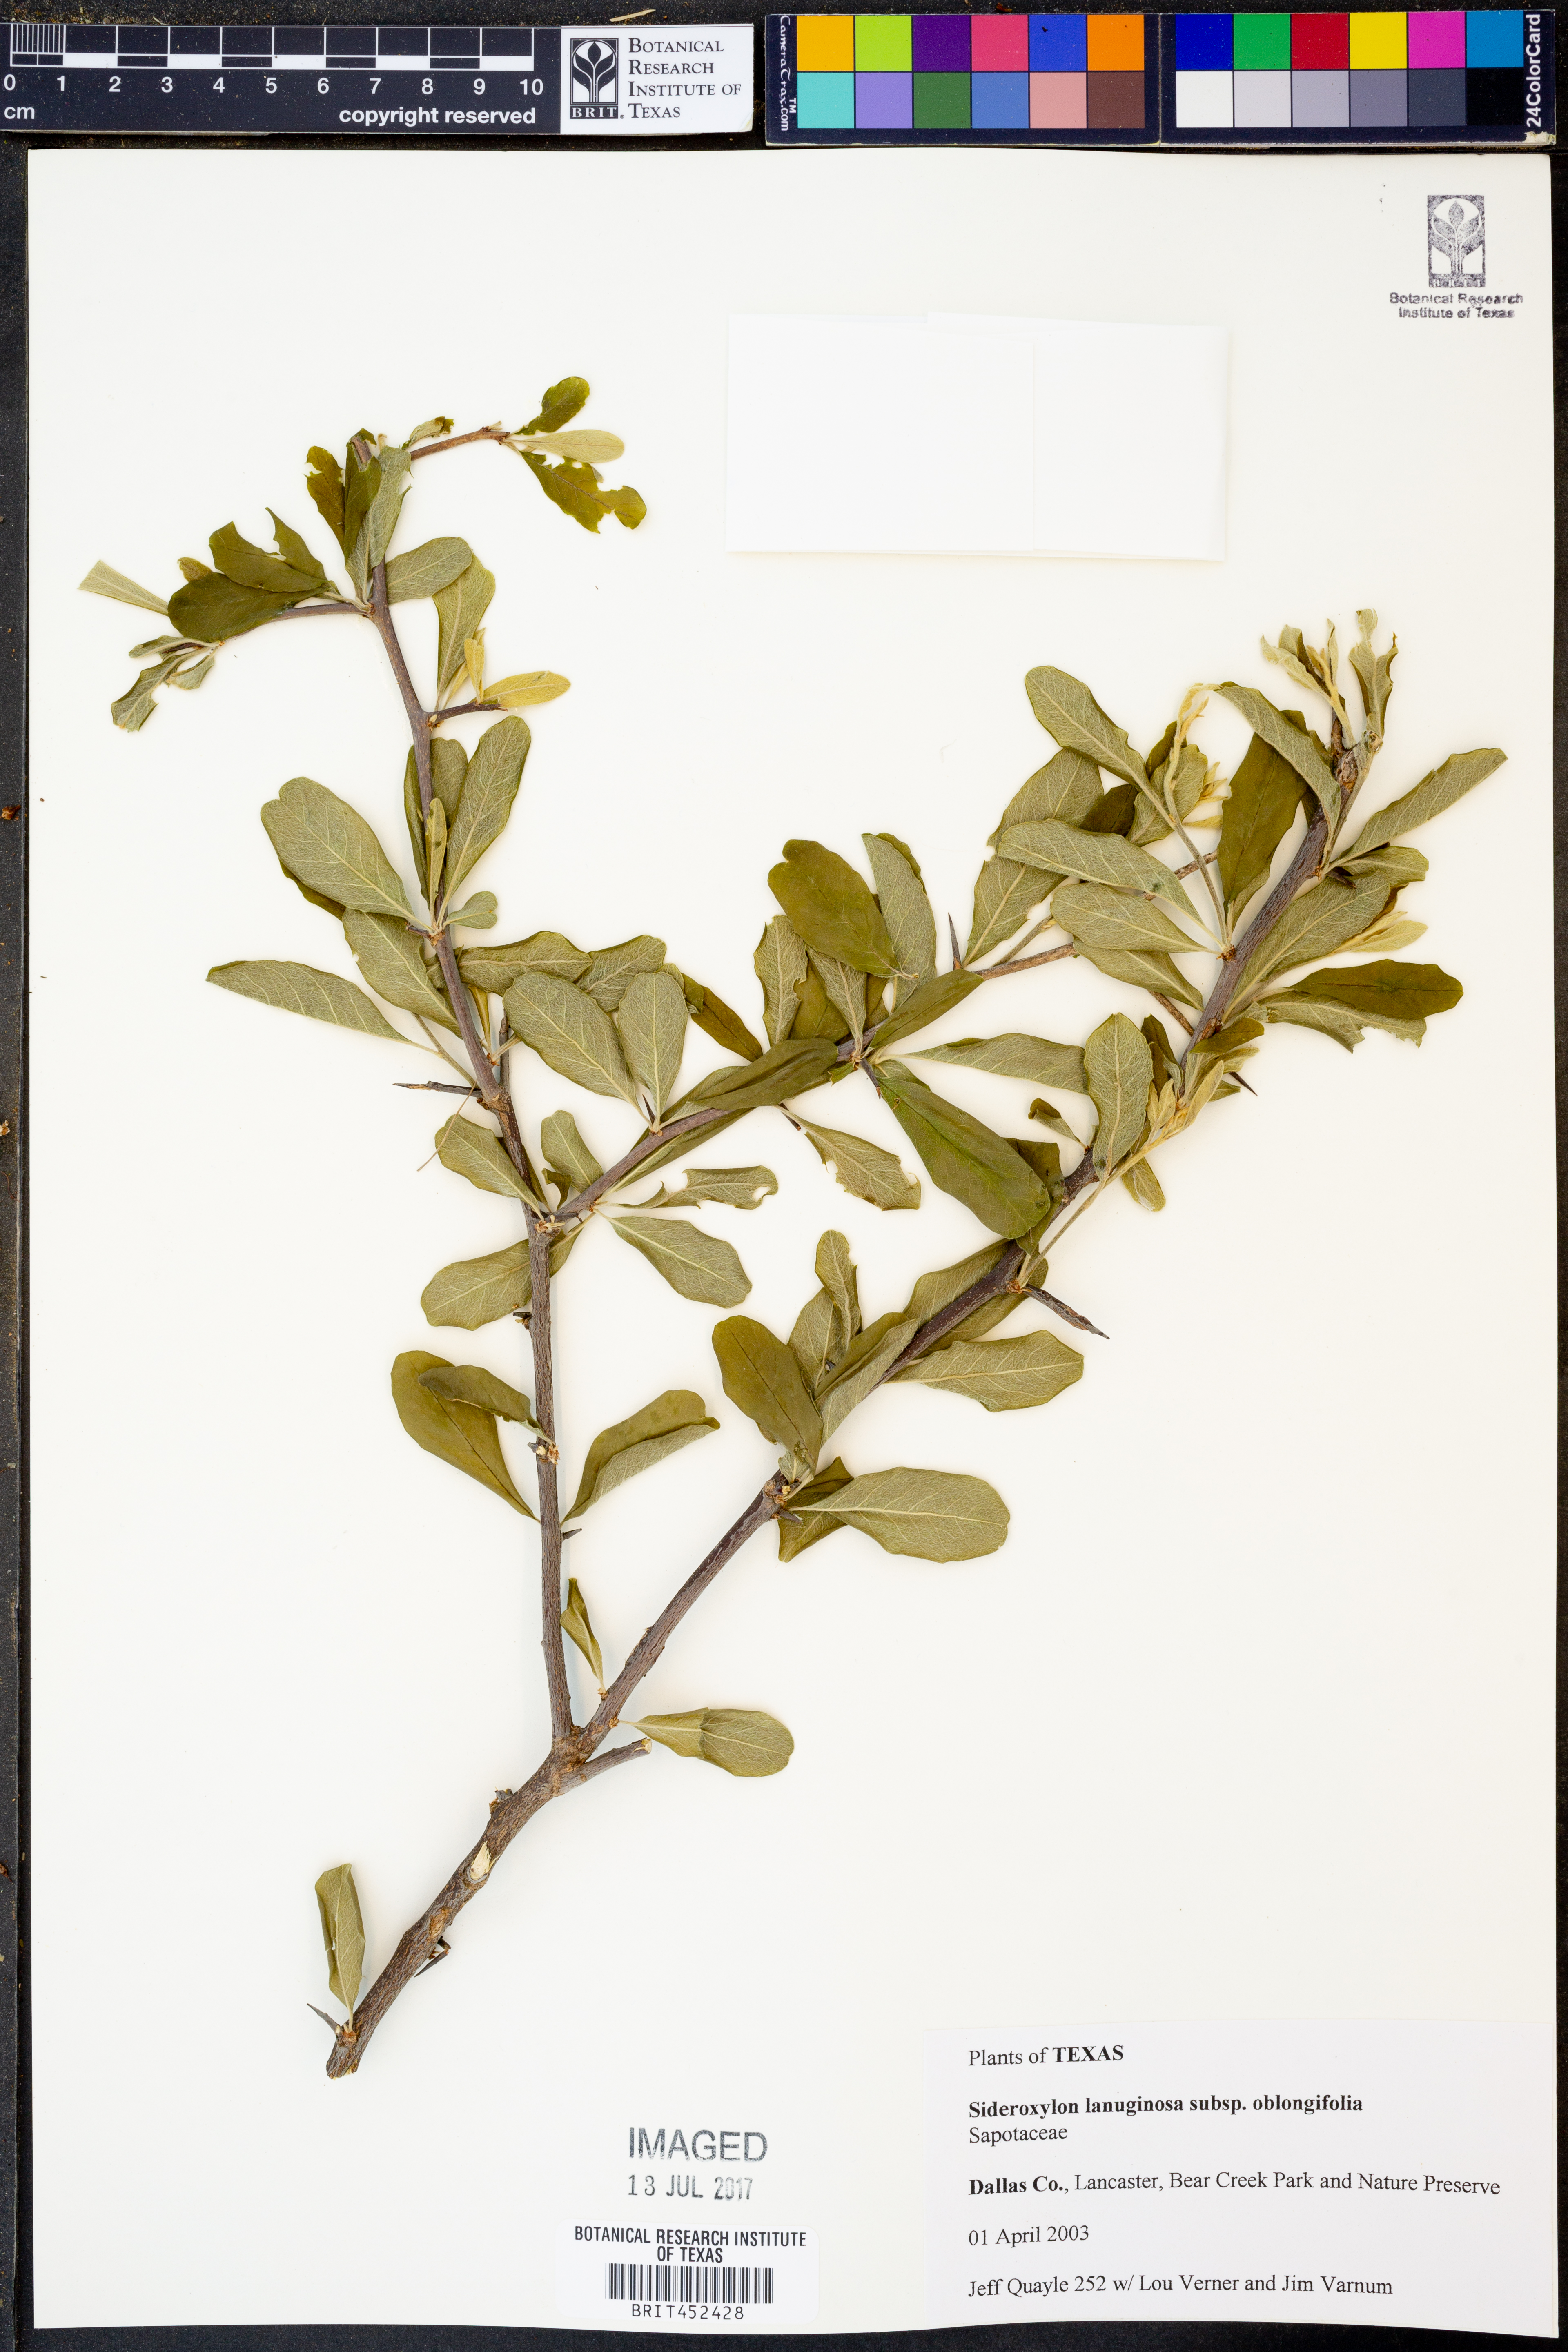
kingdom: Plantae
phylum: Tracheophyta
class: Magnoliopsida
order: Ericales
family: Sapotaceae
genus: Sideroxylon
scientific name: Sideroxylon lanuginosum
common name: Chittamwood
